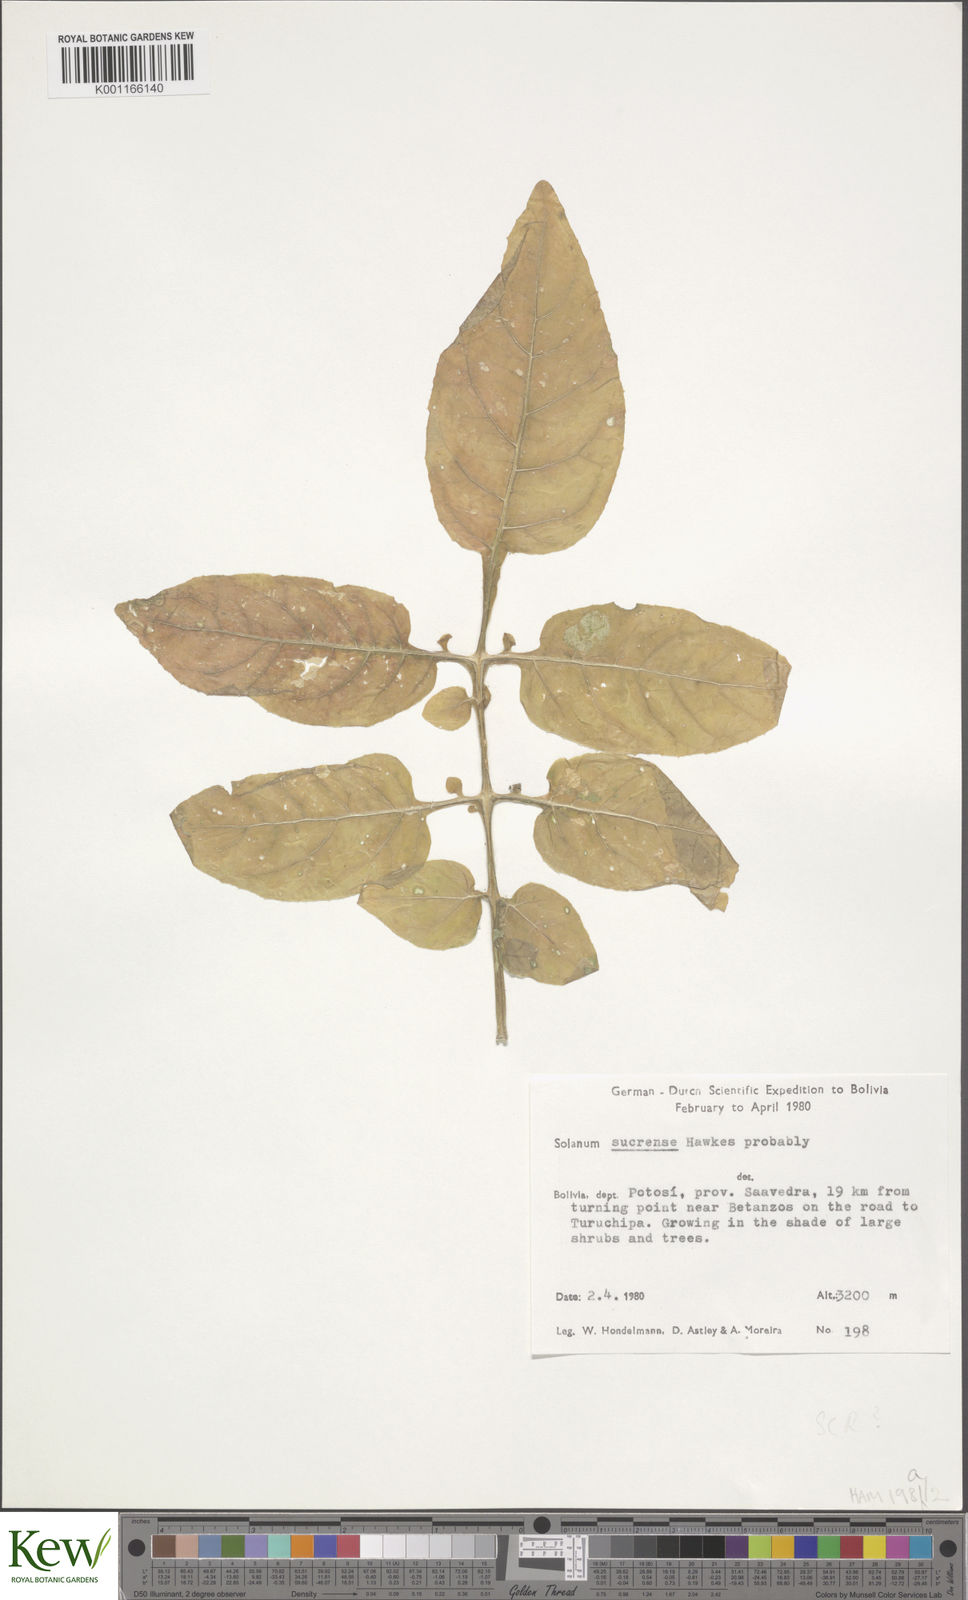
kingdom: Plantae
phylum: Tracheophyta
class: Magnoliopsida
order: Solanales
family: Solanaceae
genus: Solanum
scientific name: Solanum brevicaule
